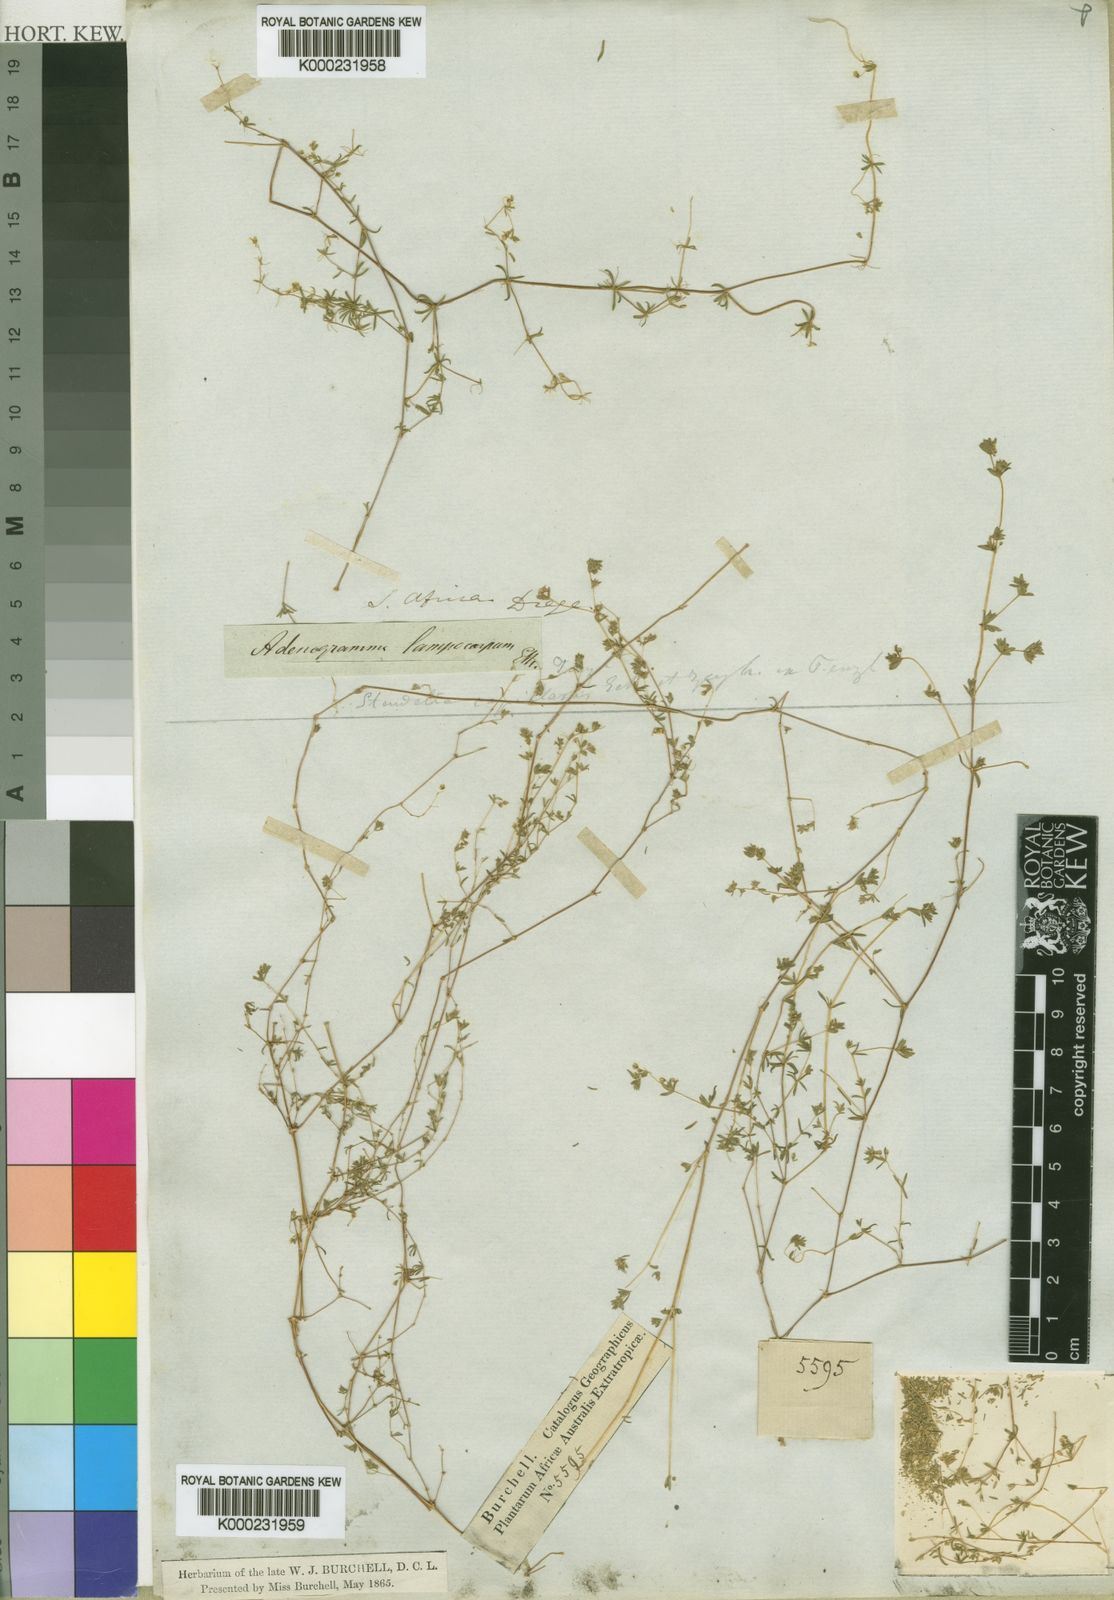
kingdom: Plantae
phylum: Tracheophyta
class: Magnoliopsida
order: Caryophyllales
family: Molluginaceae
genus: Adenogramma
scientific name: Adenogramma capillaris
